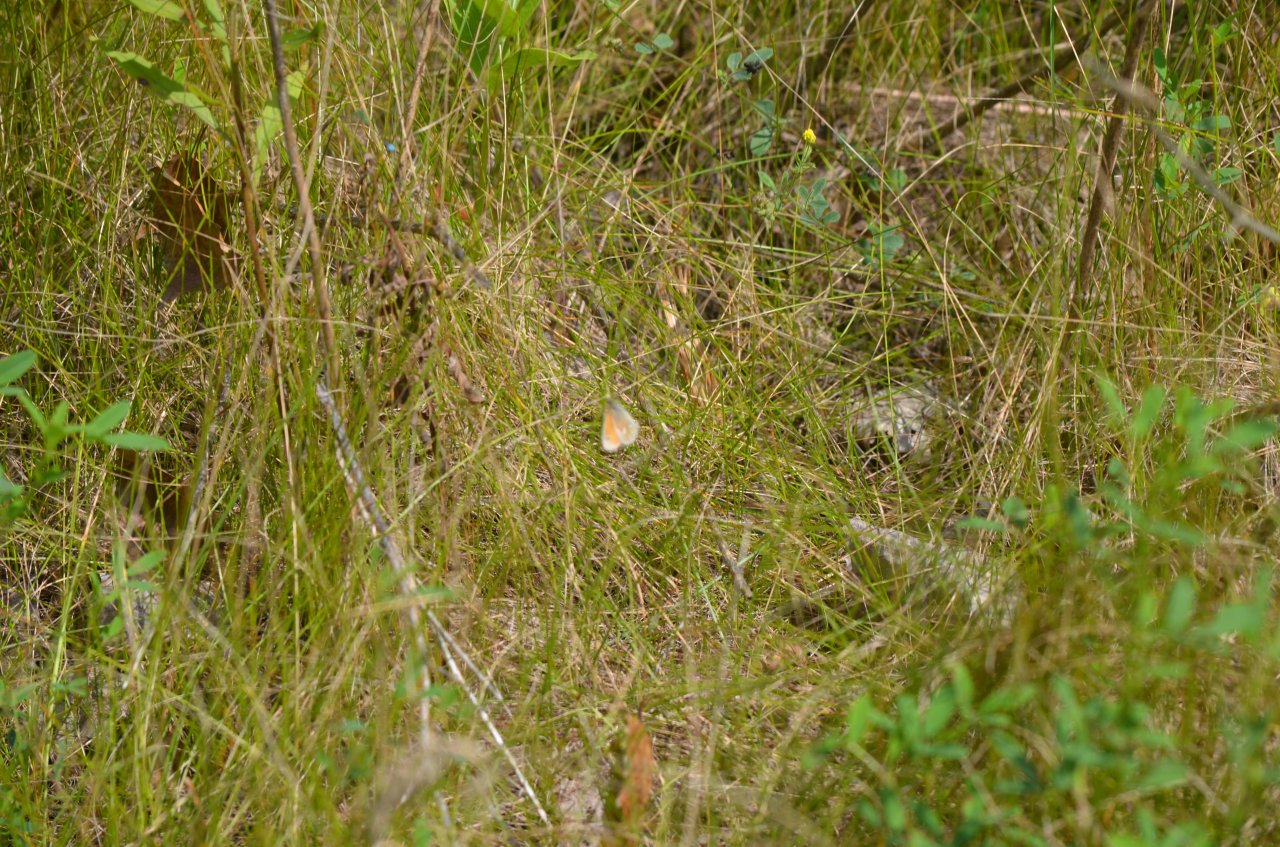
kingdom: Animalia
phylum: Arthropoda
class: Insecta
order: Lepidoptera
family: Nymphalidae
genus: Coenonympha
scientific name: Coenonympha tullia
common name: Large Heath
